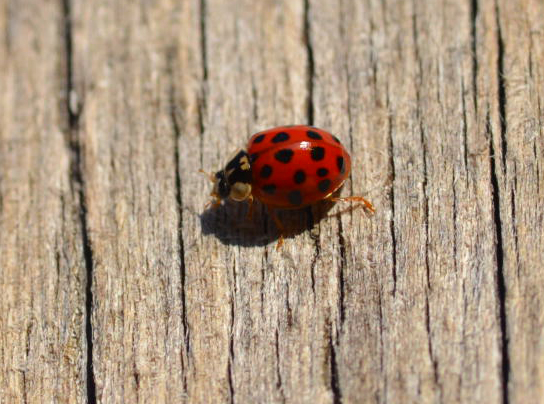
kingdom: Animalia
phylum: Arthropoda
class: Insecta
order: Coleoptera
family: Coccinellidae
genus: Harmonia
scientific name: Harmonia axyridis
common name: Harlequin ladybird
